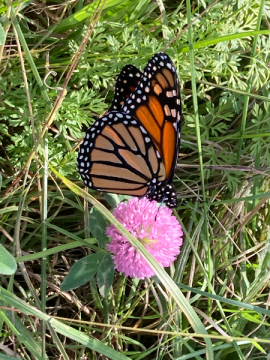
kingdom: Animalia
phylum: Arthropoda
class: Insecta
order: Lepidoptera
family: Nymphalidae
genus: Danaus
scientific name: Danaus plexippus
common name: Monarch
